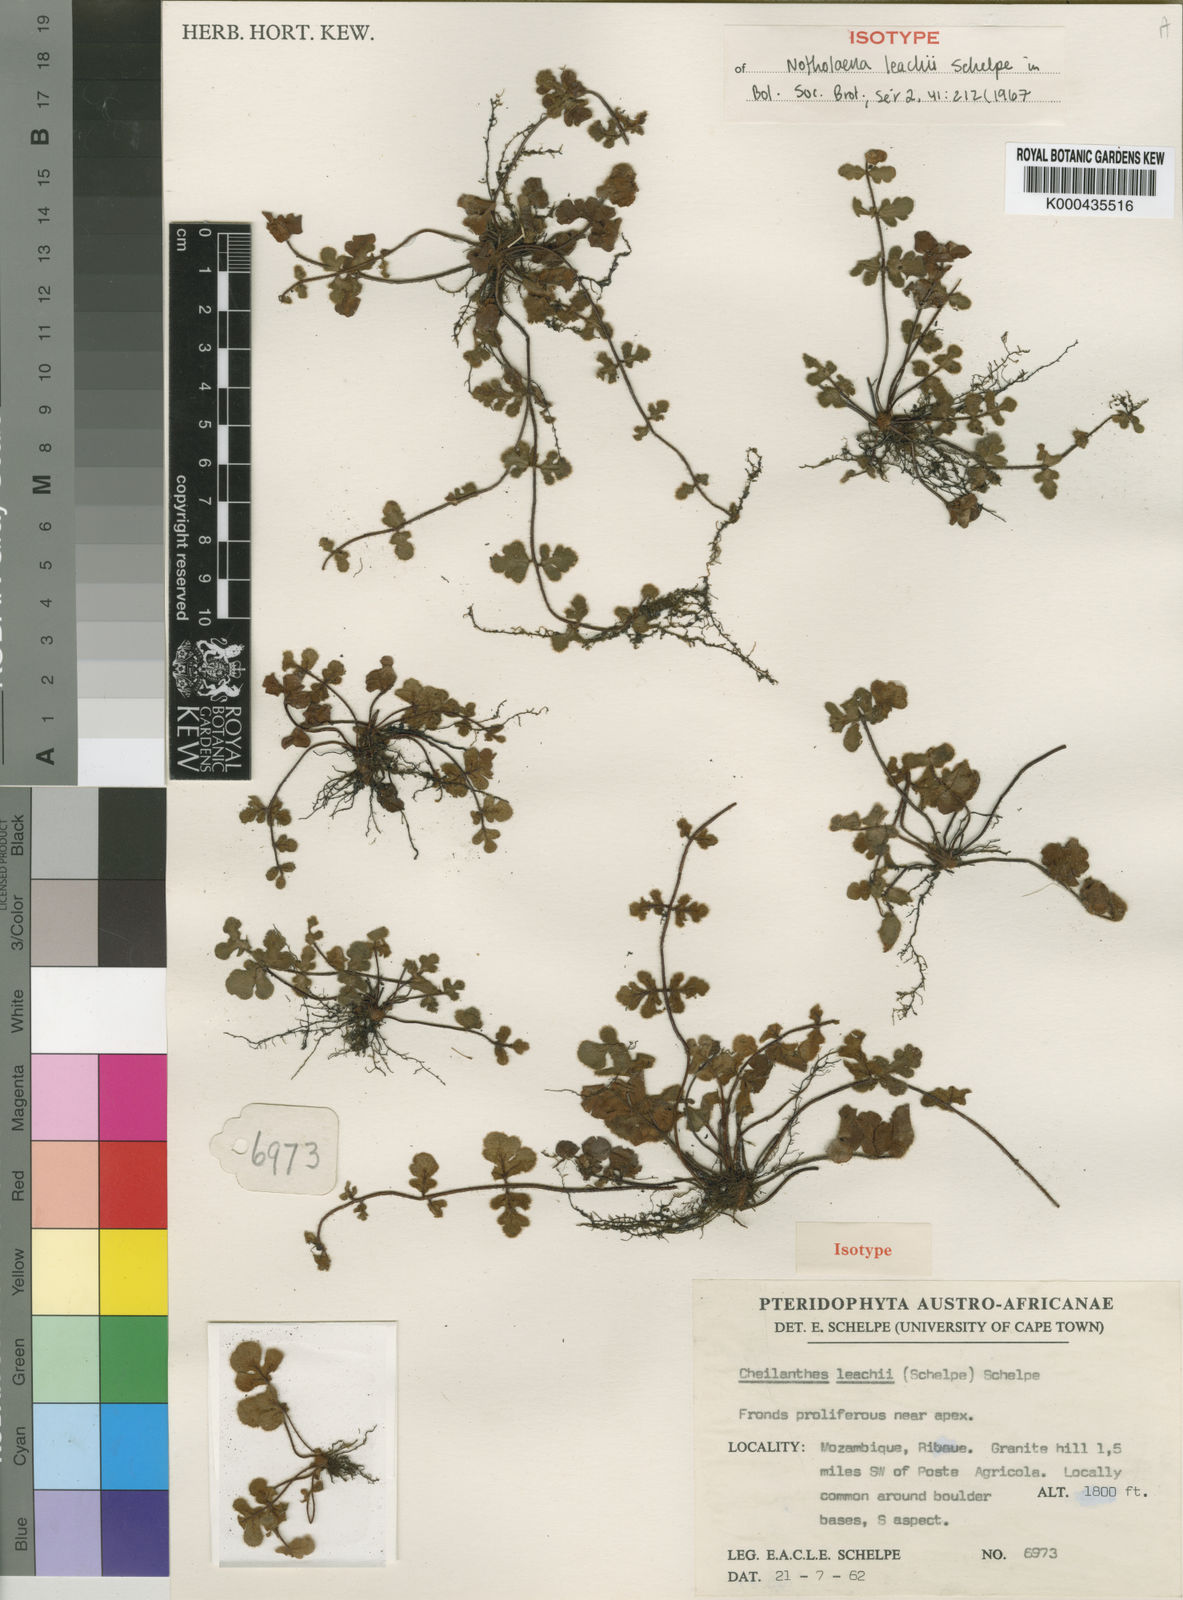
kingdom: Plantae
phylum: Tracheophyta
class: Polypodiopsida
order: Polypodiales
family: Pteridaceae
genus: Cheilanthes
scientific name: Cheilanthes leachii
